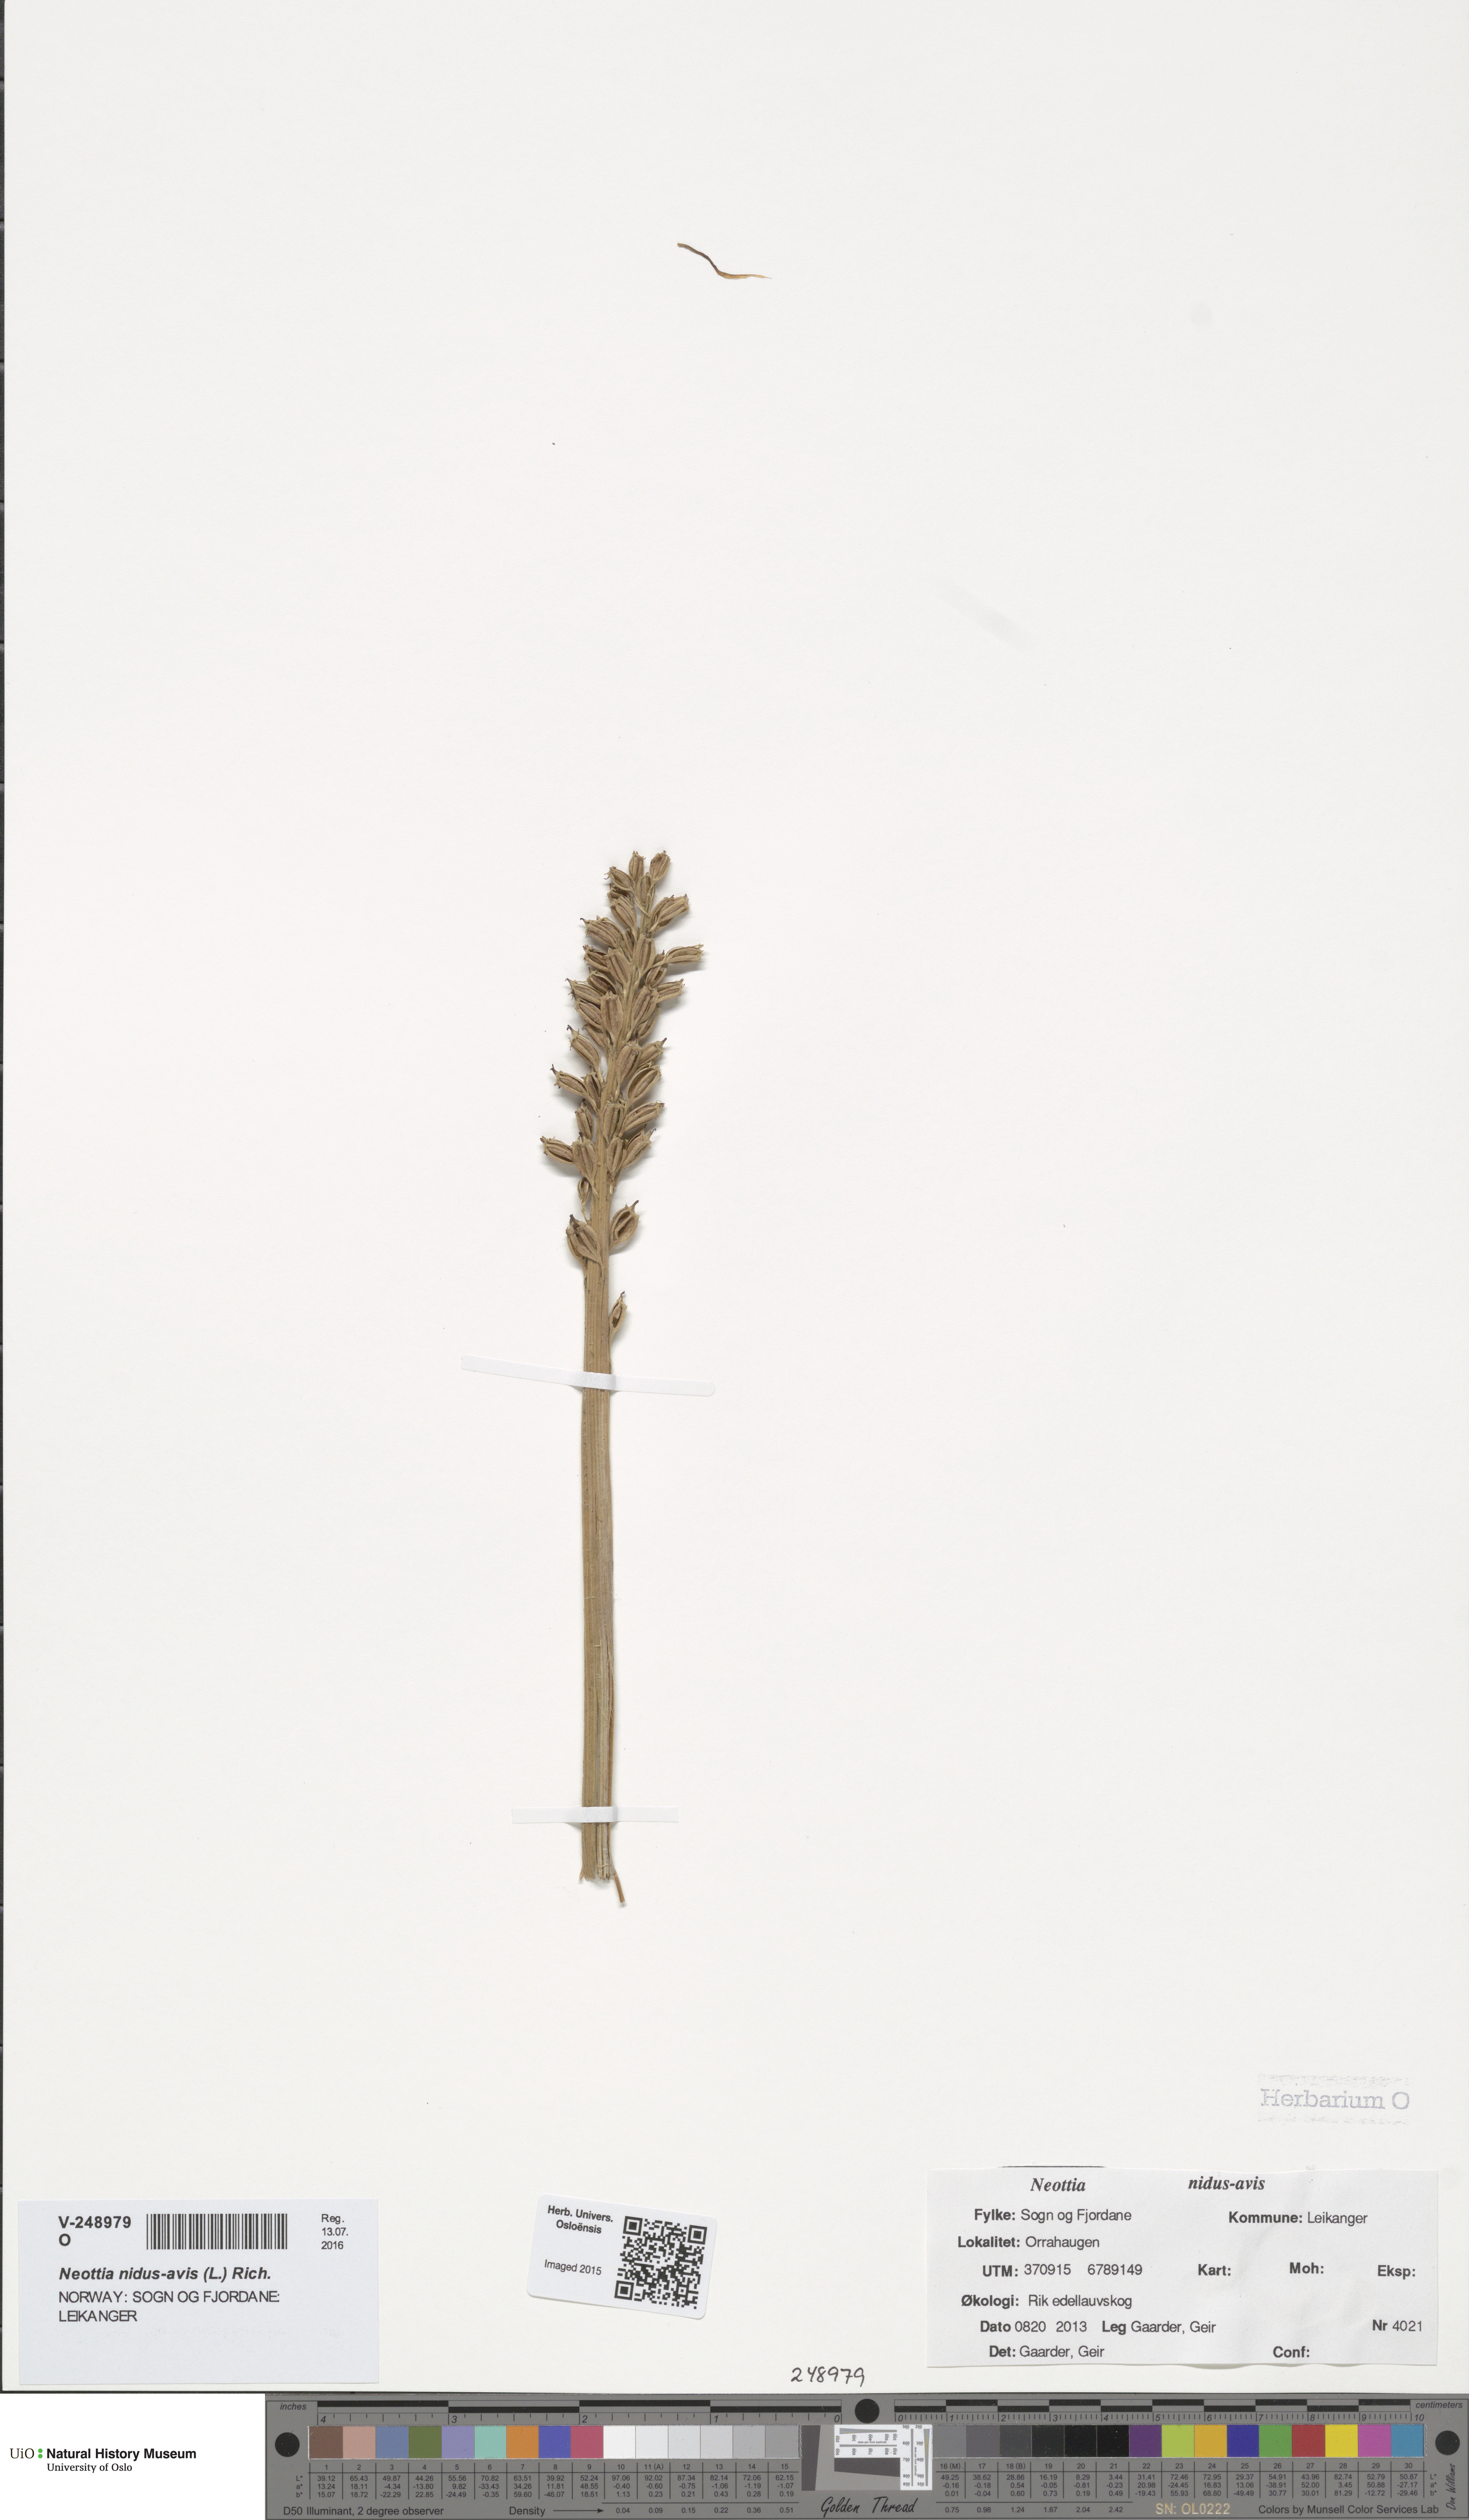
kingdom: Plantae
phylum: Tracheophyta
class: Liliopsida
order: Asparagales
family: Orchidaceae
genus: Neottia
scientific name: Neottia nidus-avis
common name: Bird's-nest orchid
